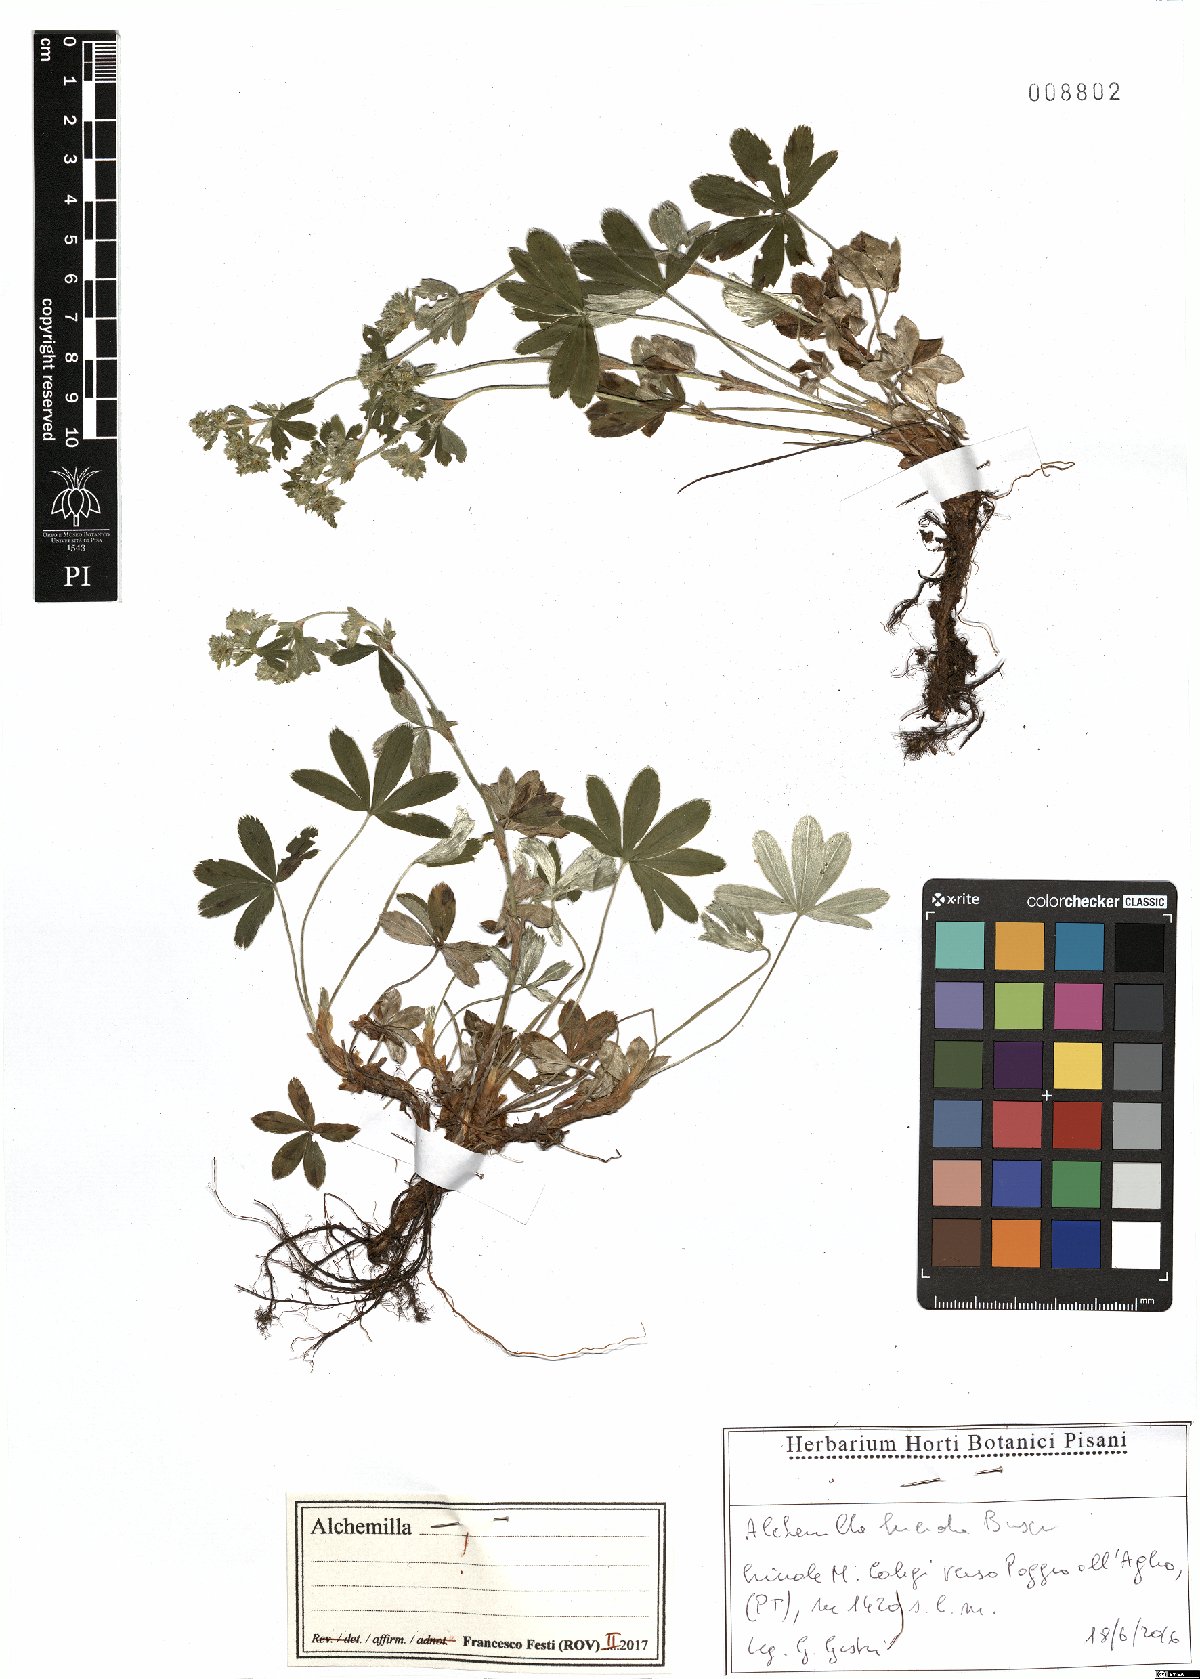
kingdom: Plantae
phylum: Tracheophyta
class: Magnoliopsida
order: Rosales
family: Rosaceae
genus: Alchemilla
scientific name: Alchemilla lucida
